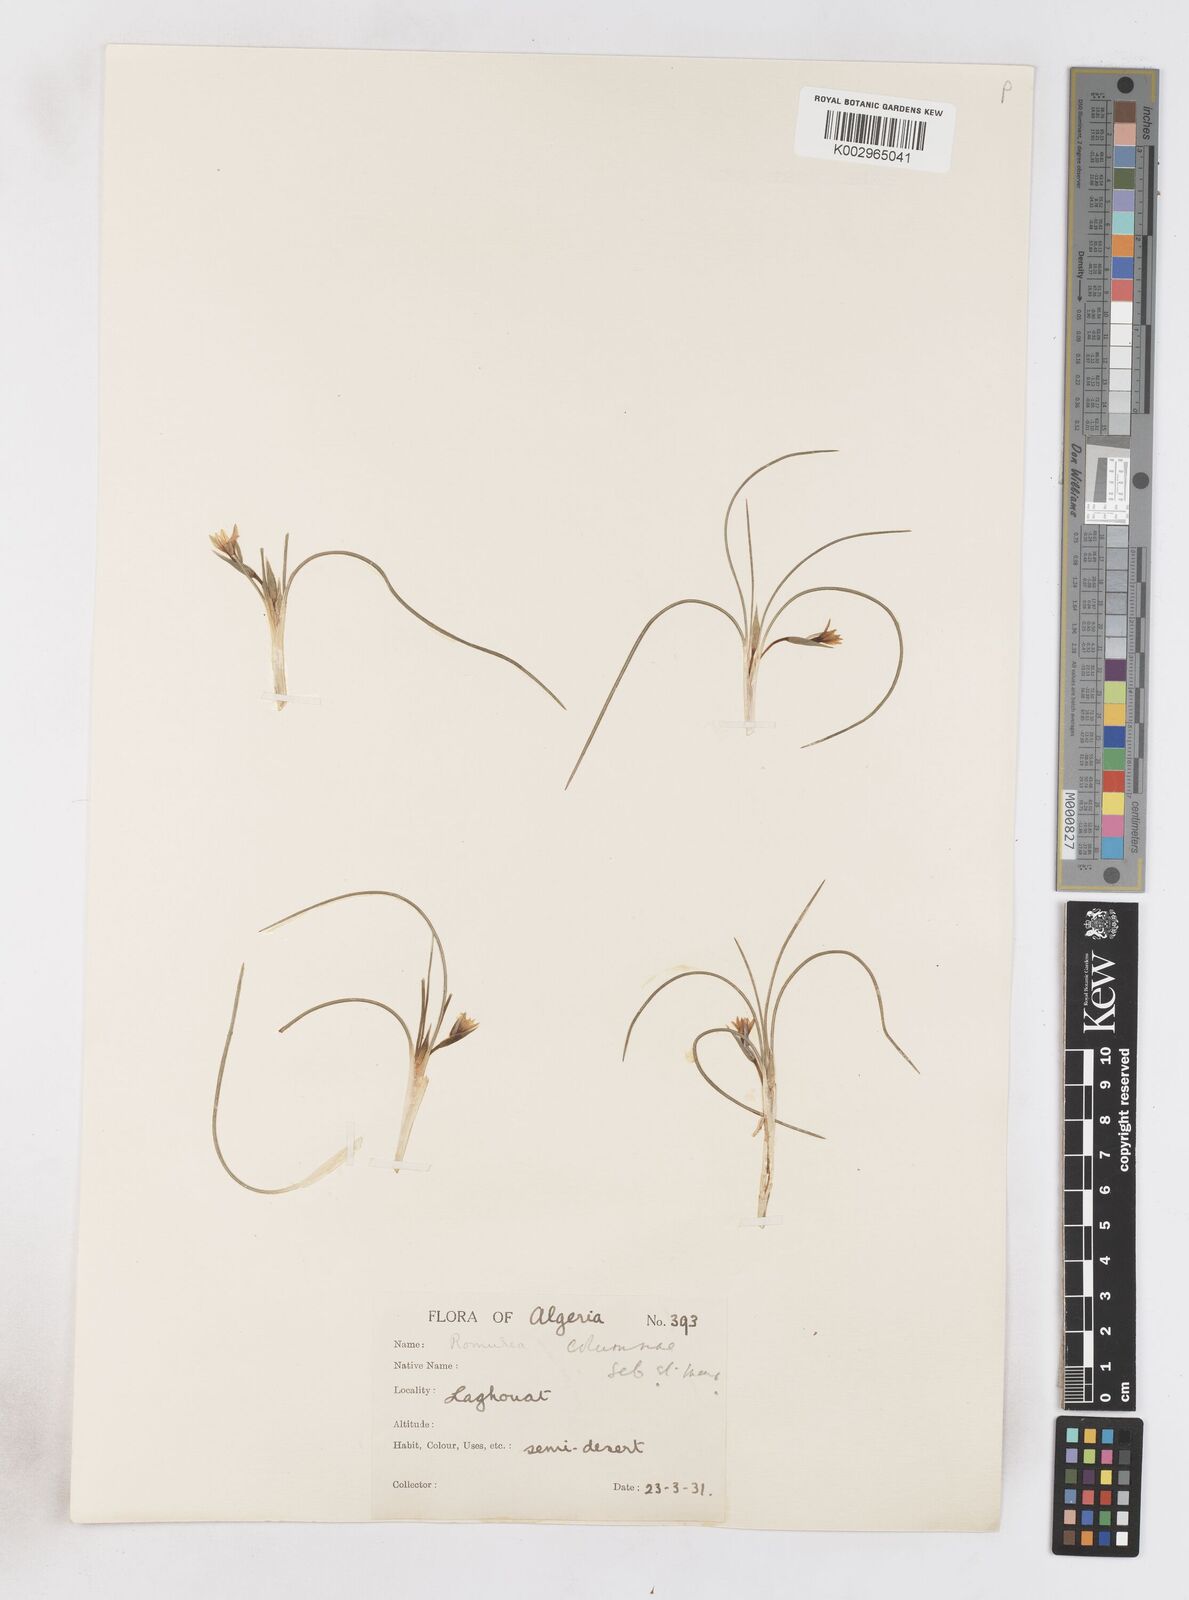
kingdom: Plantae
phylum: Tracheophyta
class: Liliopsida
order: Asparagales
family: Iridaceae
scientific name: Iridaceae
